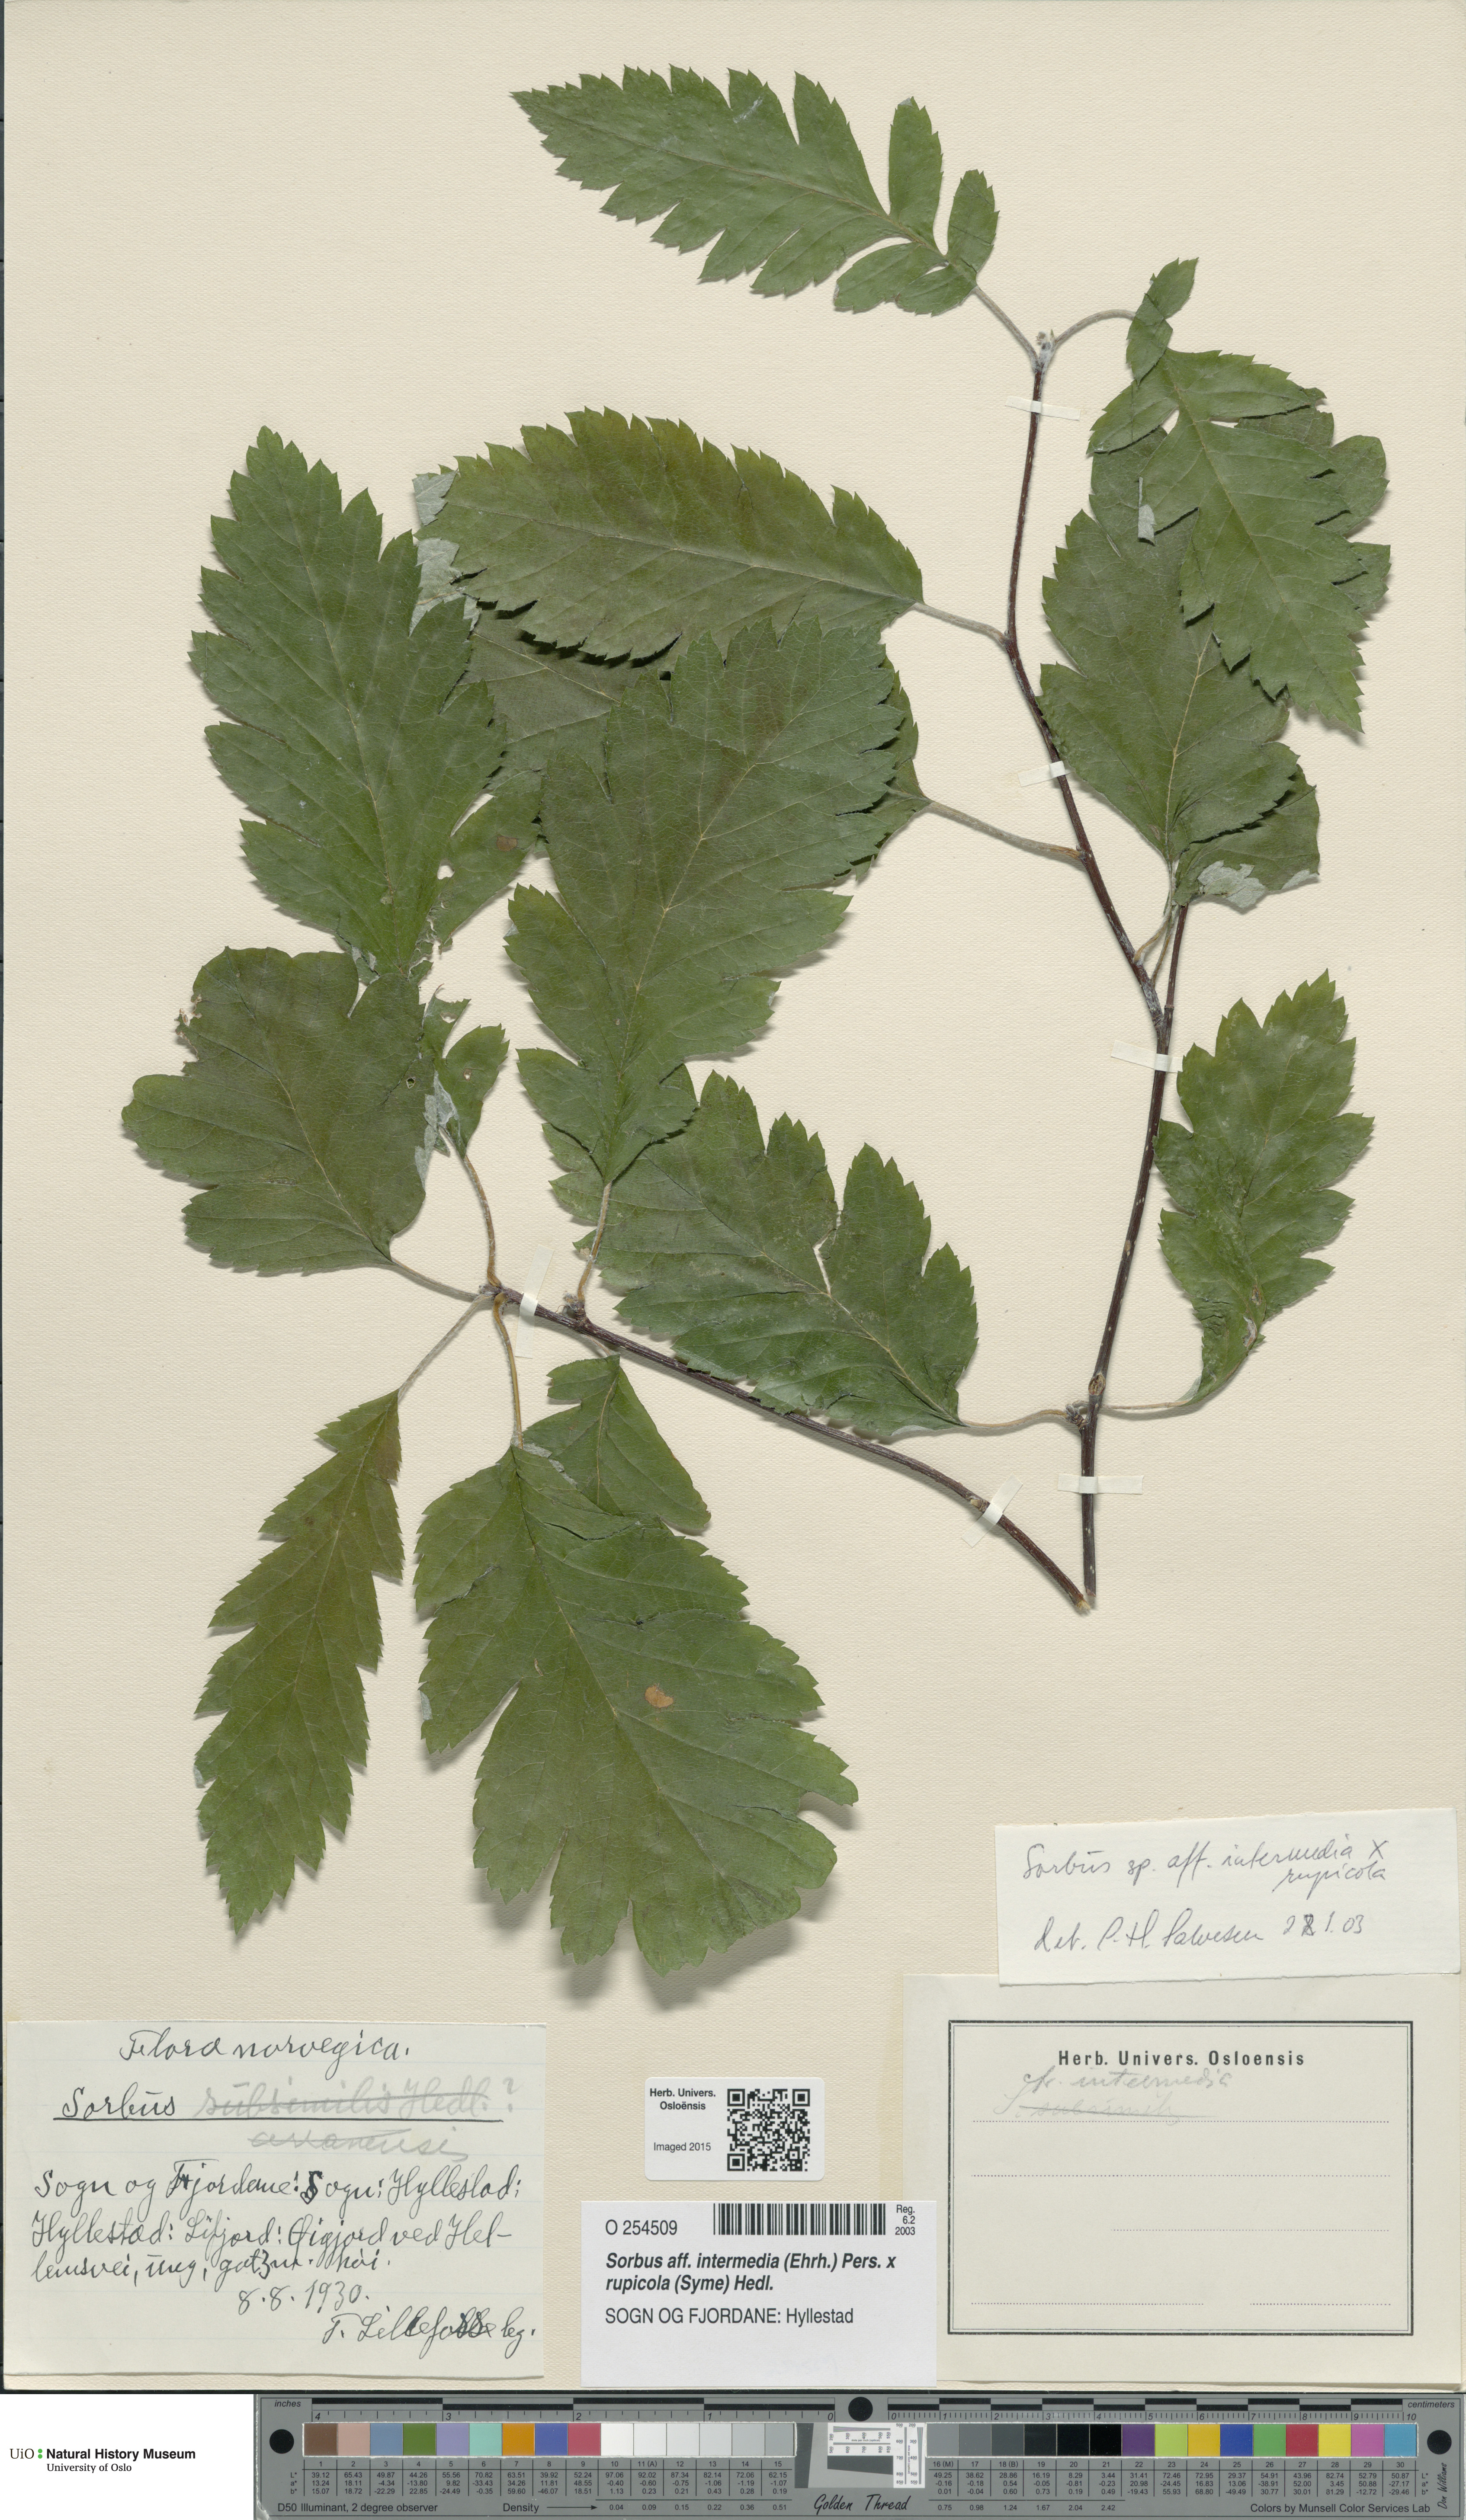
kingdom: Plantae
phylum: Tracheophyta
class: Magnoliopsida
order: Rosales
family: Rosaceae
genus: Aria
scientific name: Aria
